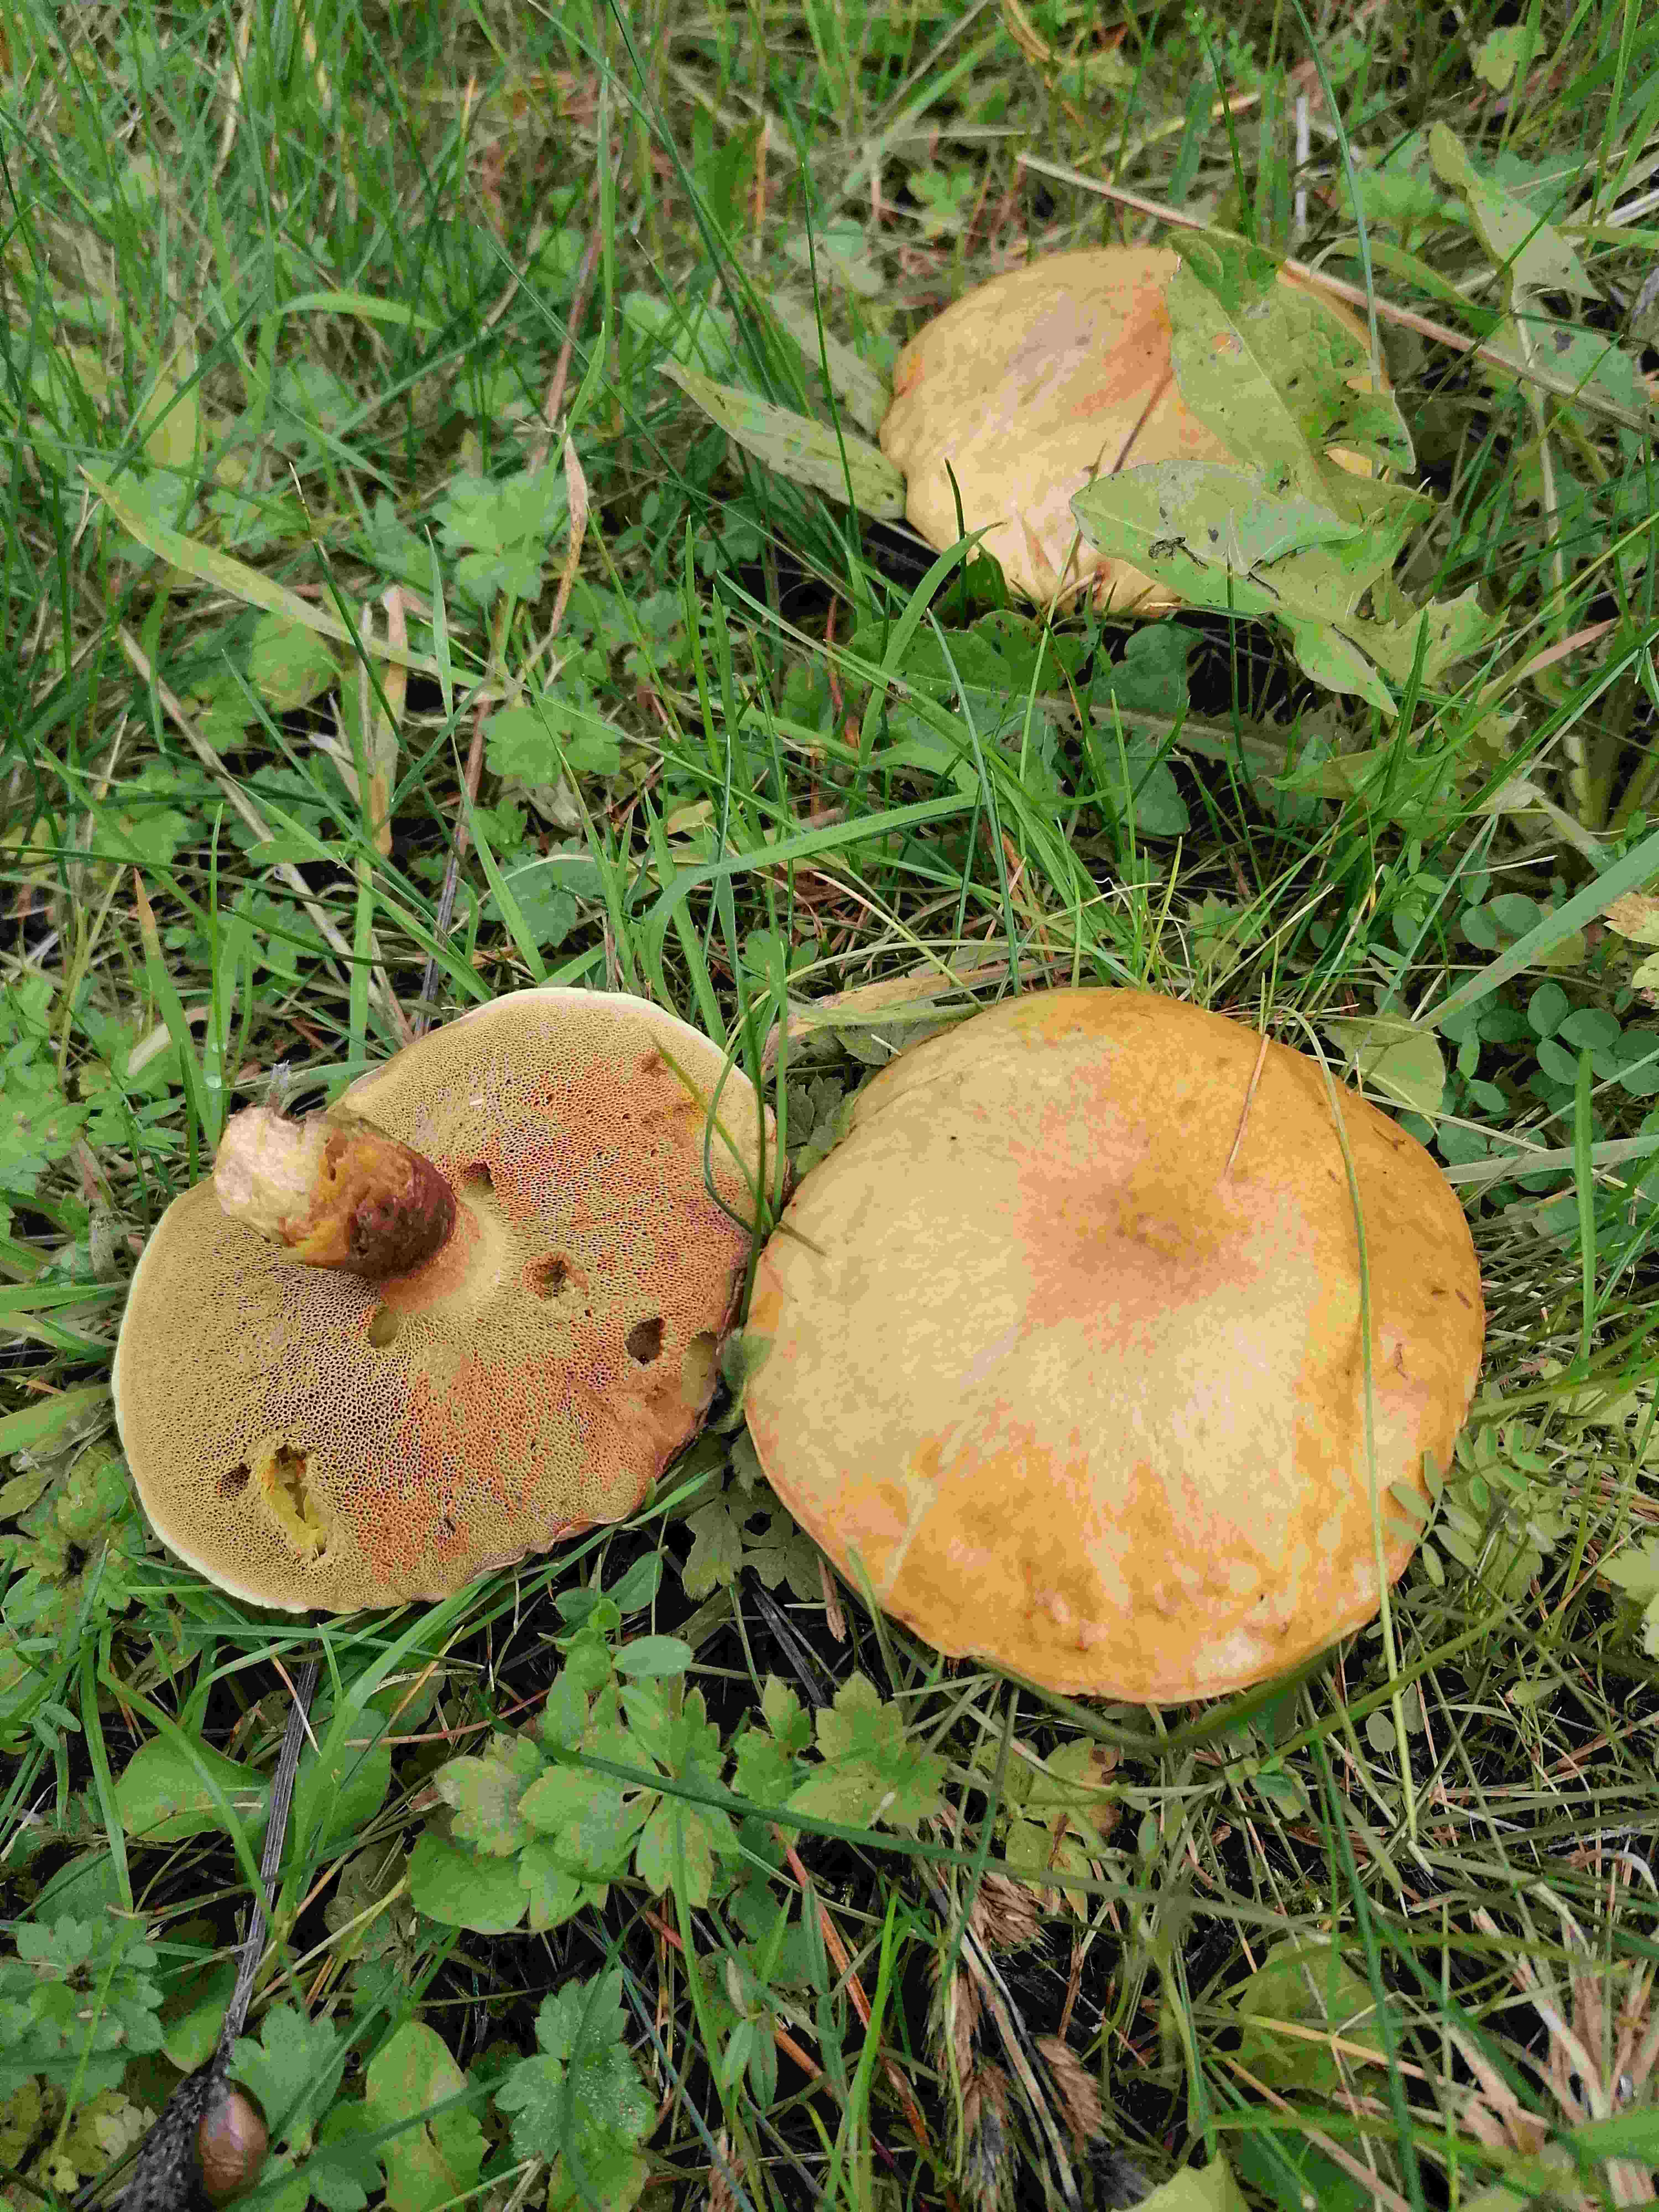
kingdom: Fungi
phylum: Basidiomycota
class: Agaricomycetes
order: Boletales
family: Suillaceae
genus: Suillus
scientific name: Suillus variegatus
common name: broget slimrørhat
